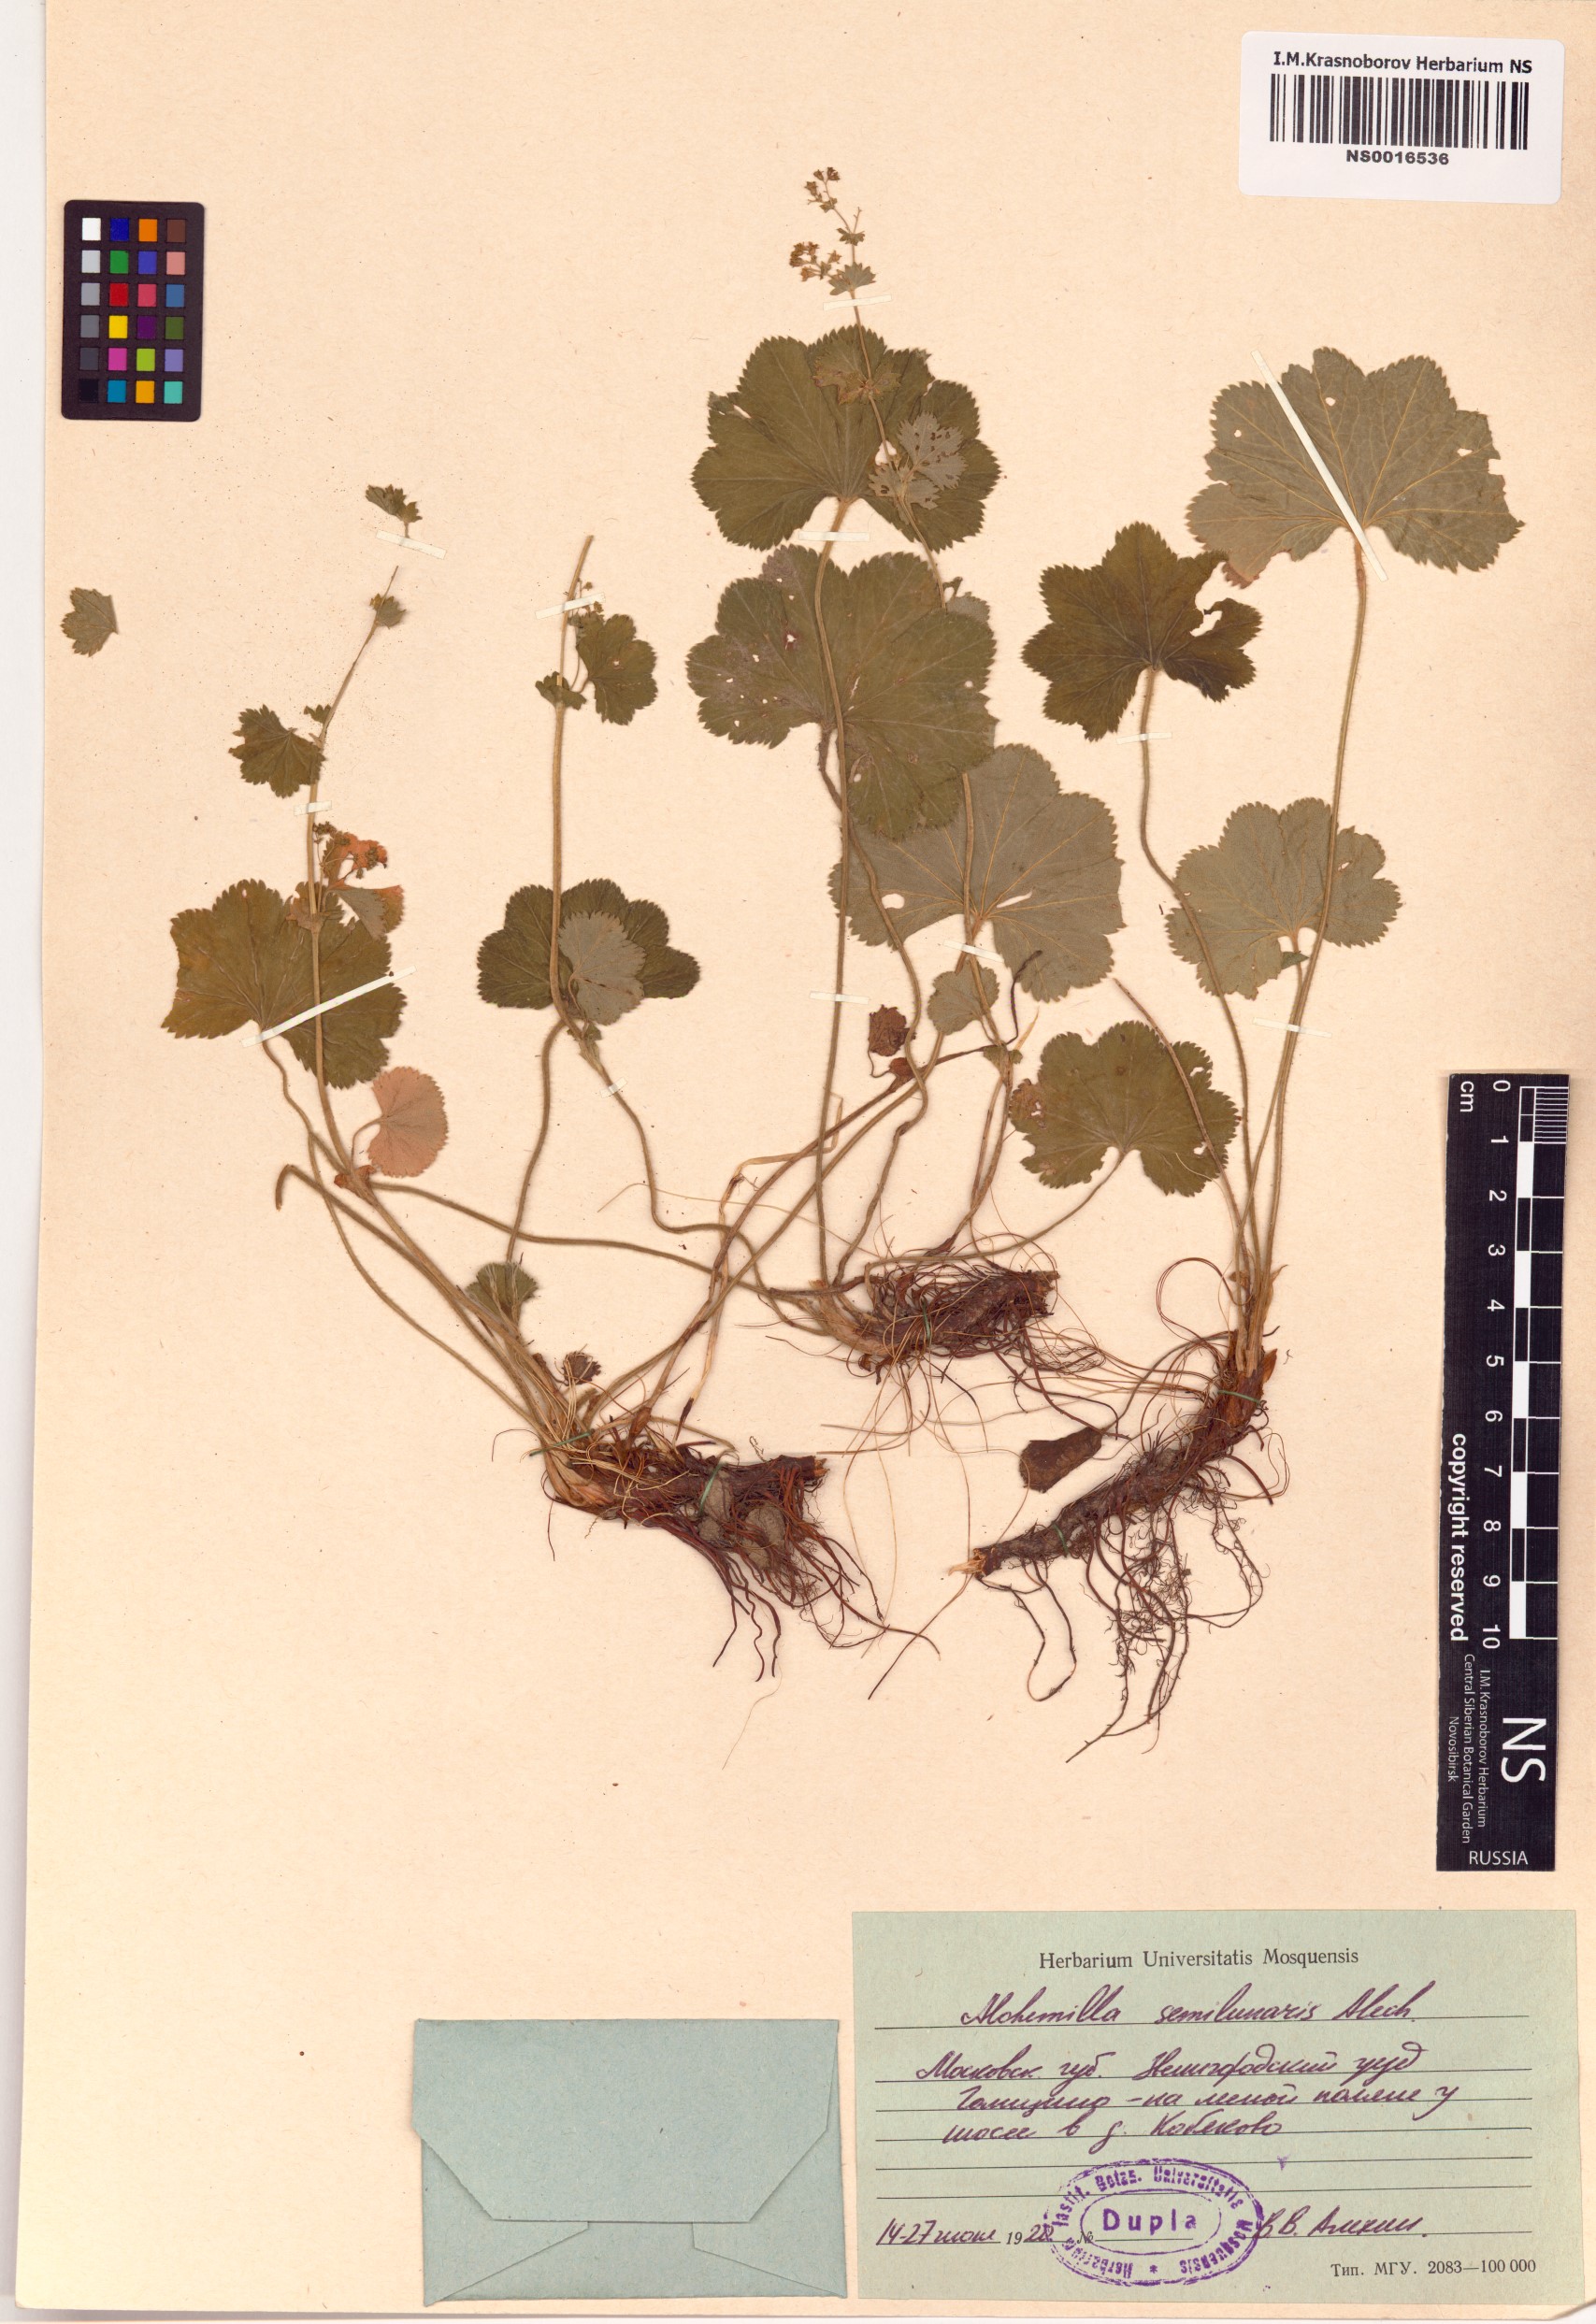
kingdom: Plantae
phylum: Tracheophyta
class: Magnoliopsida
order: Rosales
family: Rosaceae
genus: Alchemilla
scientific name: Alchemilla semilunaris
